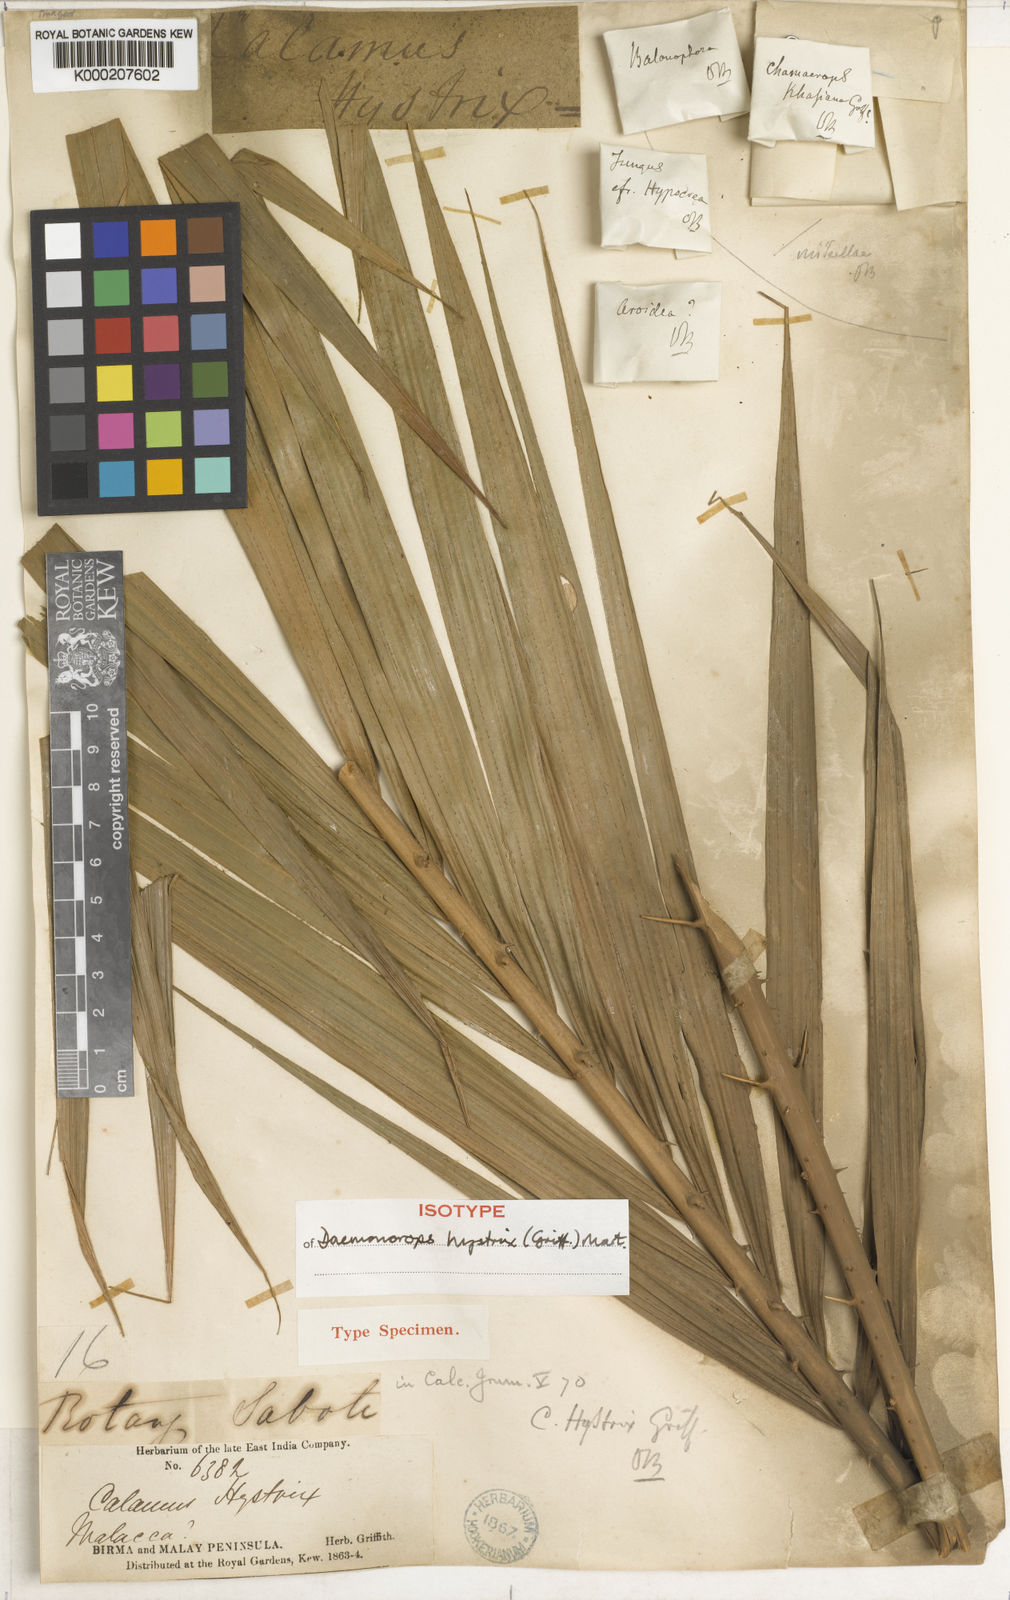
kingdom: Plantae
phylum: Tracheophyta
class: Liliopsida
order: Arecales
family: Arecaceae
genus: Calamus
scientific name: Calamus hirsutus
